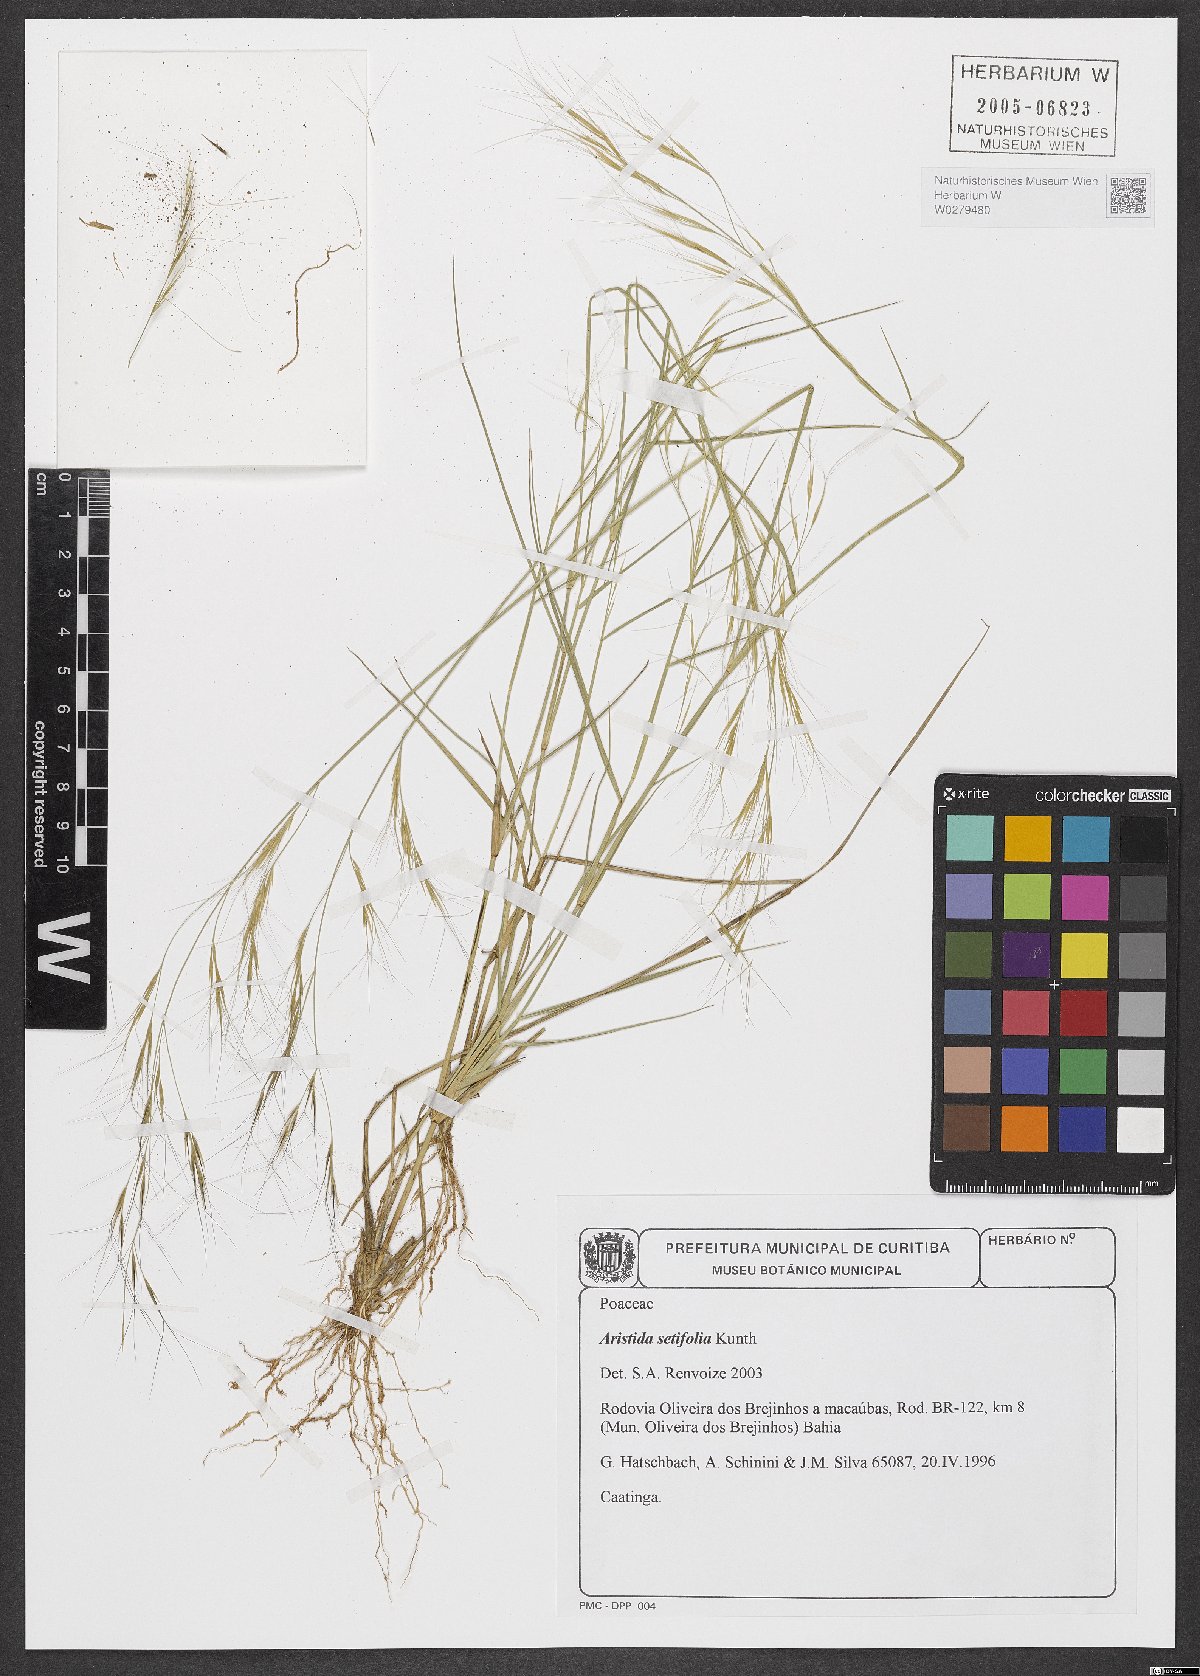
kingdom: Plantae
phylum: Tracheophyta
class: Liliopsida
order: Poales
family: Poaceae
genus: Aristida
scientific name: Aristida setifolia
